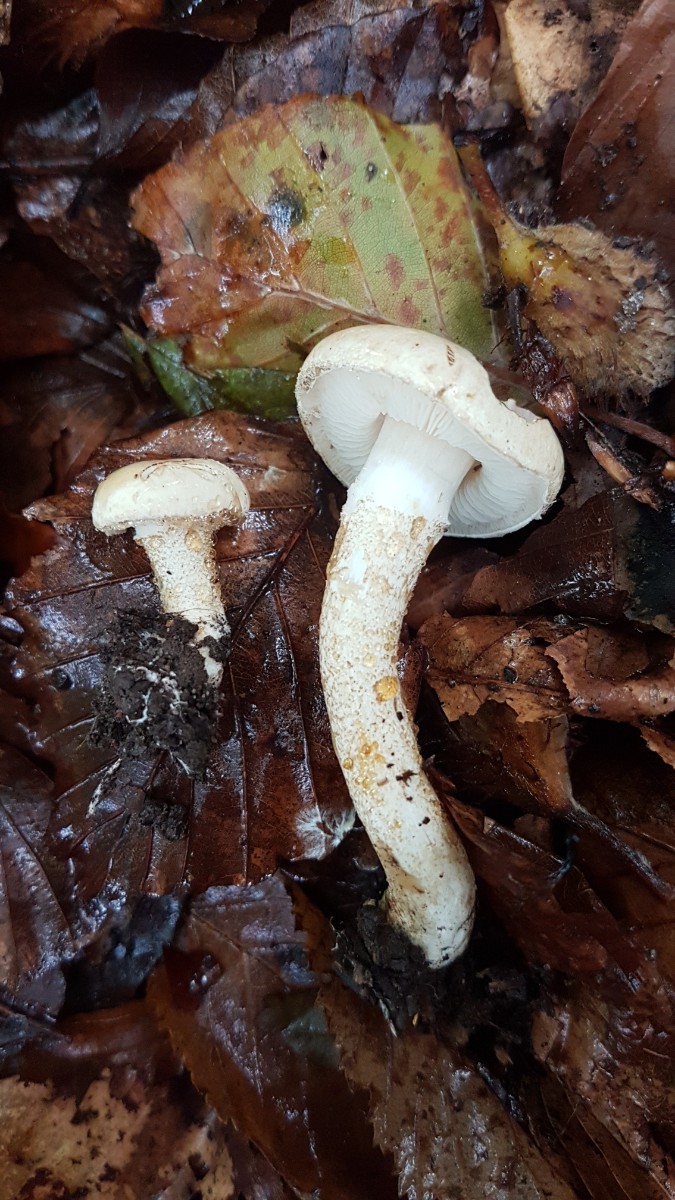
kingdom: Fungi
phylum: Basidiomycota
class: Agaricomycetes
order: Agaricales
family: Agaricaceae
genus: Chamaemyces
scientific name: Chamaemyces fracidus
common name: dråbehat
